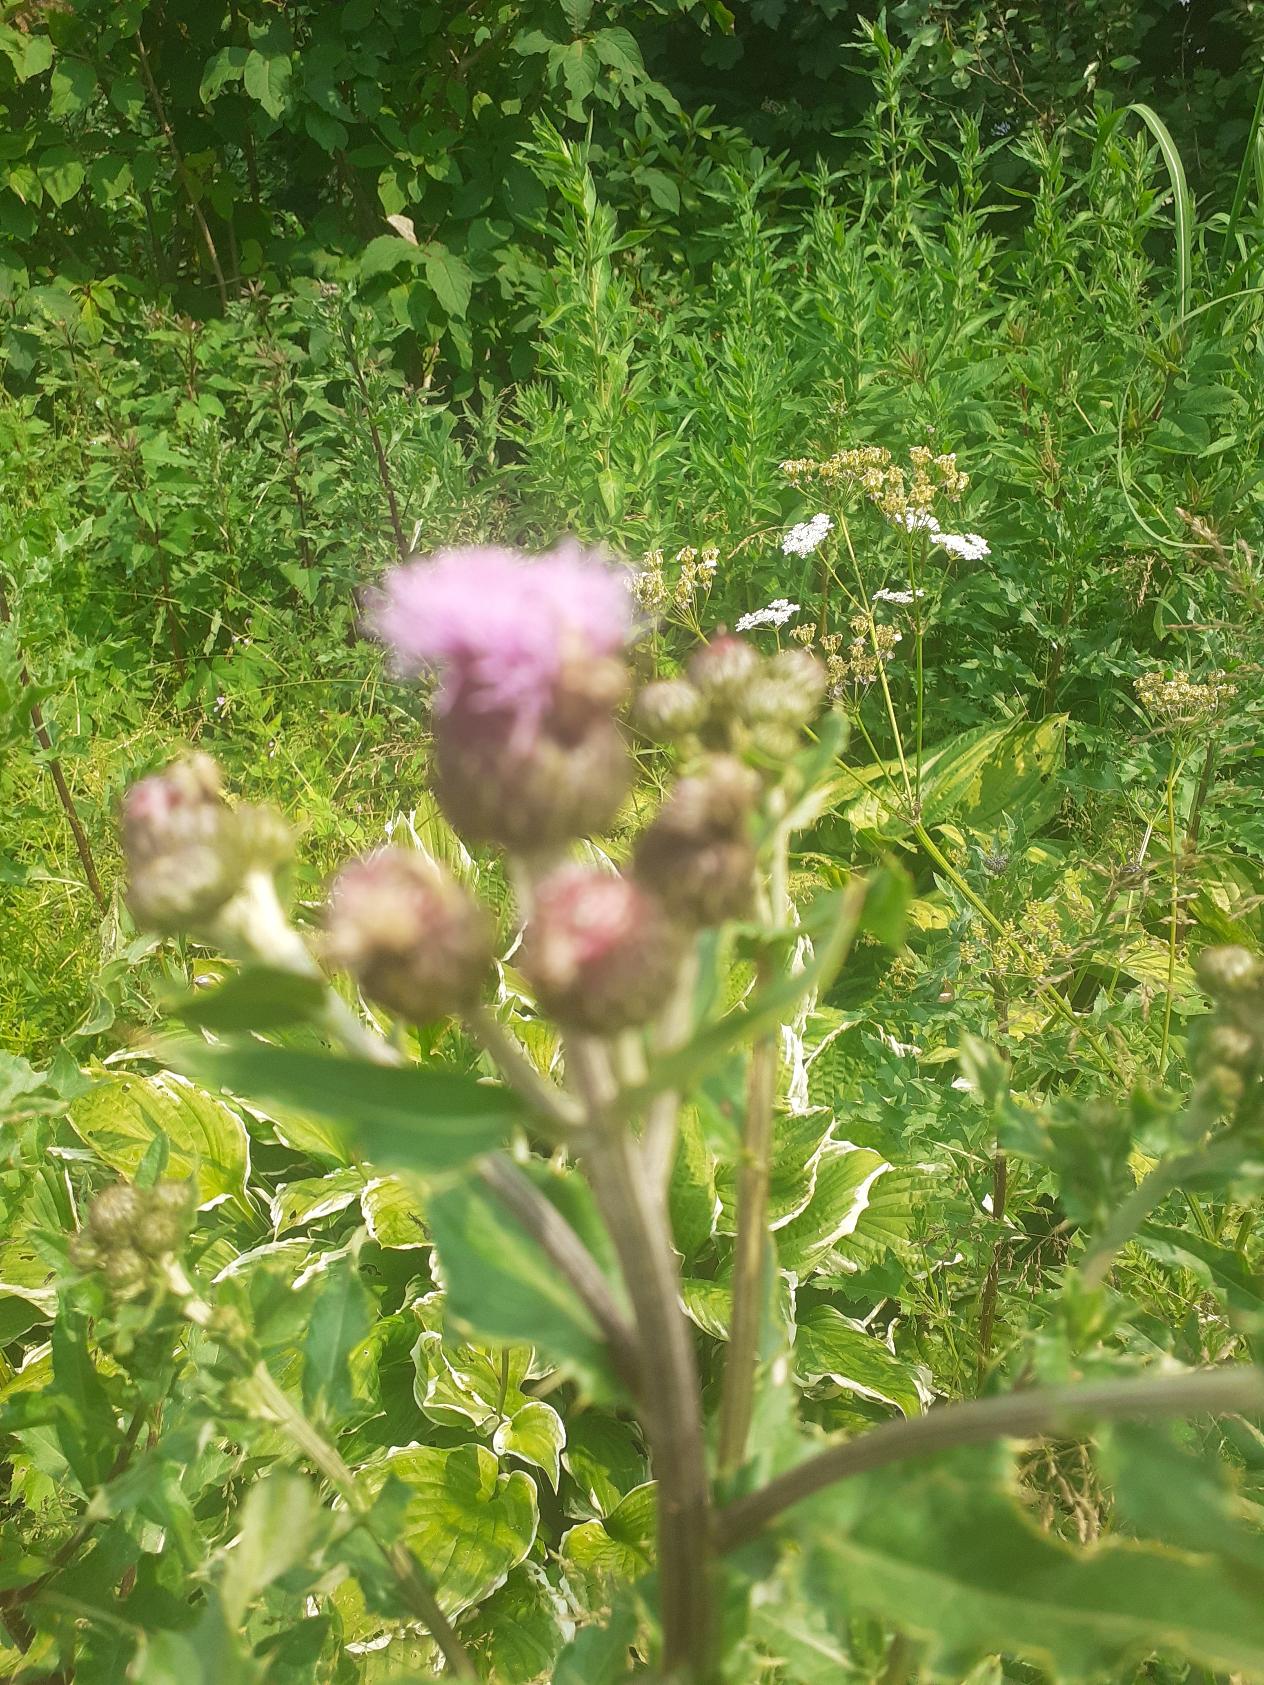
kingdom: Plantae
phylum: Tracheophyta
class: Magnoliopsida
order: Asterales
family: Asteraceae
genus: Cirsium
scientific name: Cirsium arvense
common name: Ager-tidsel
